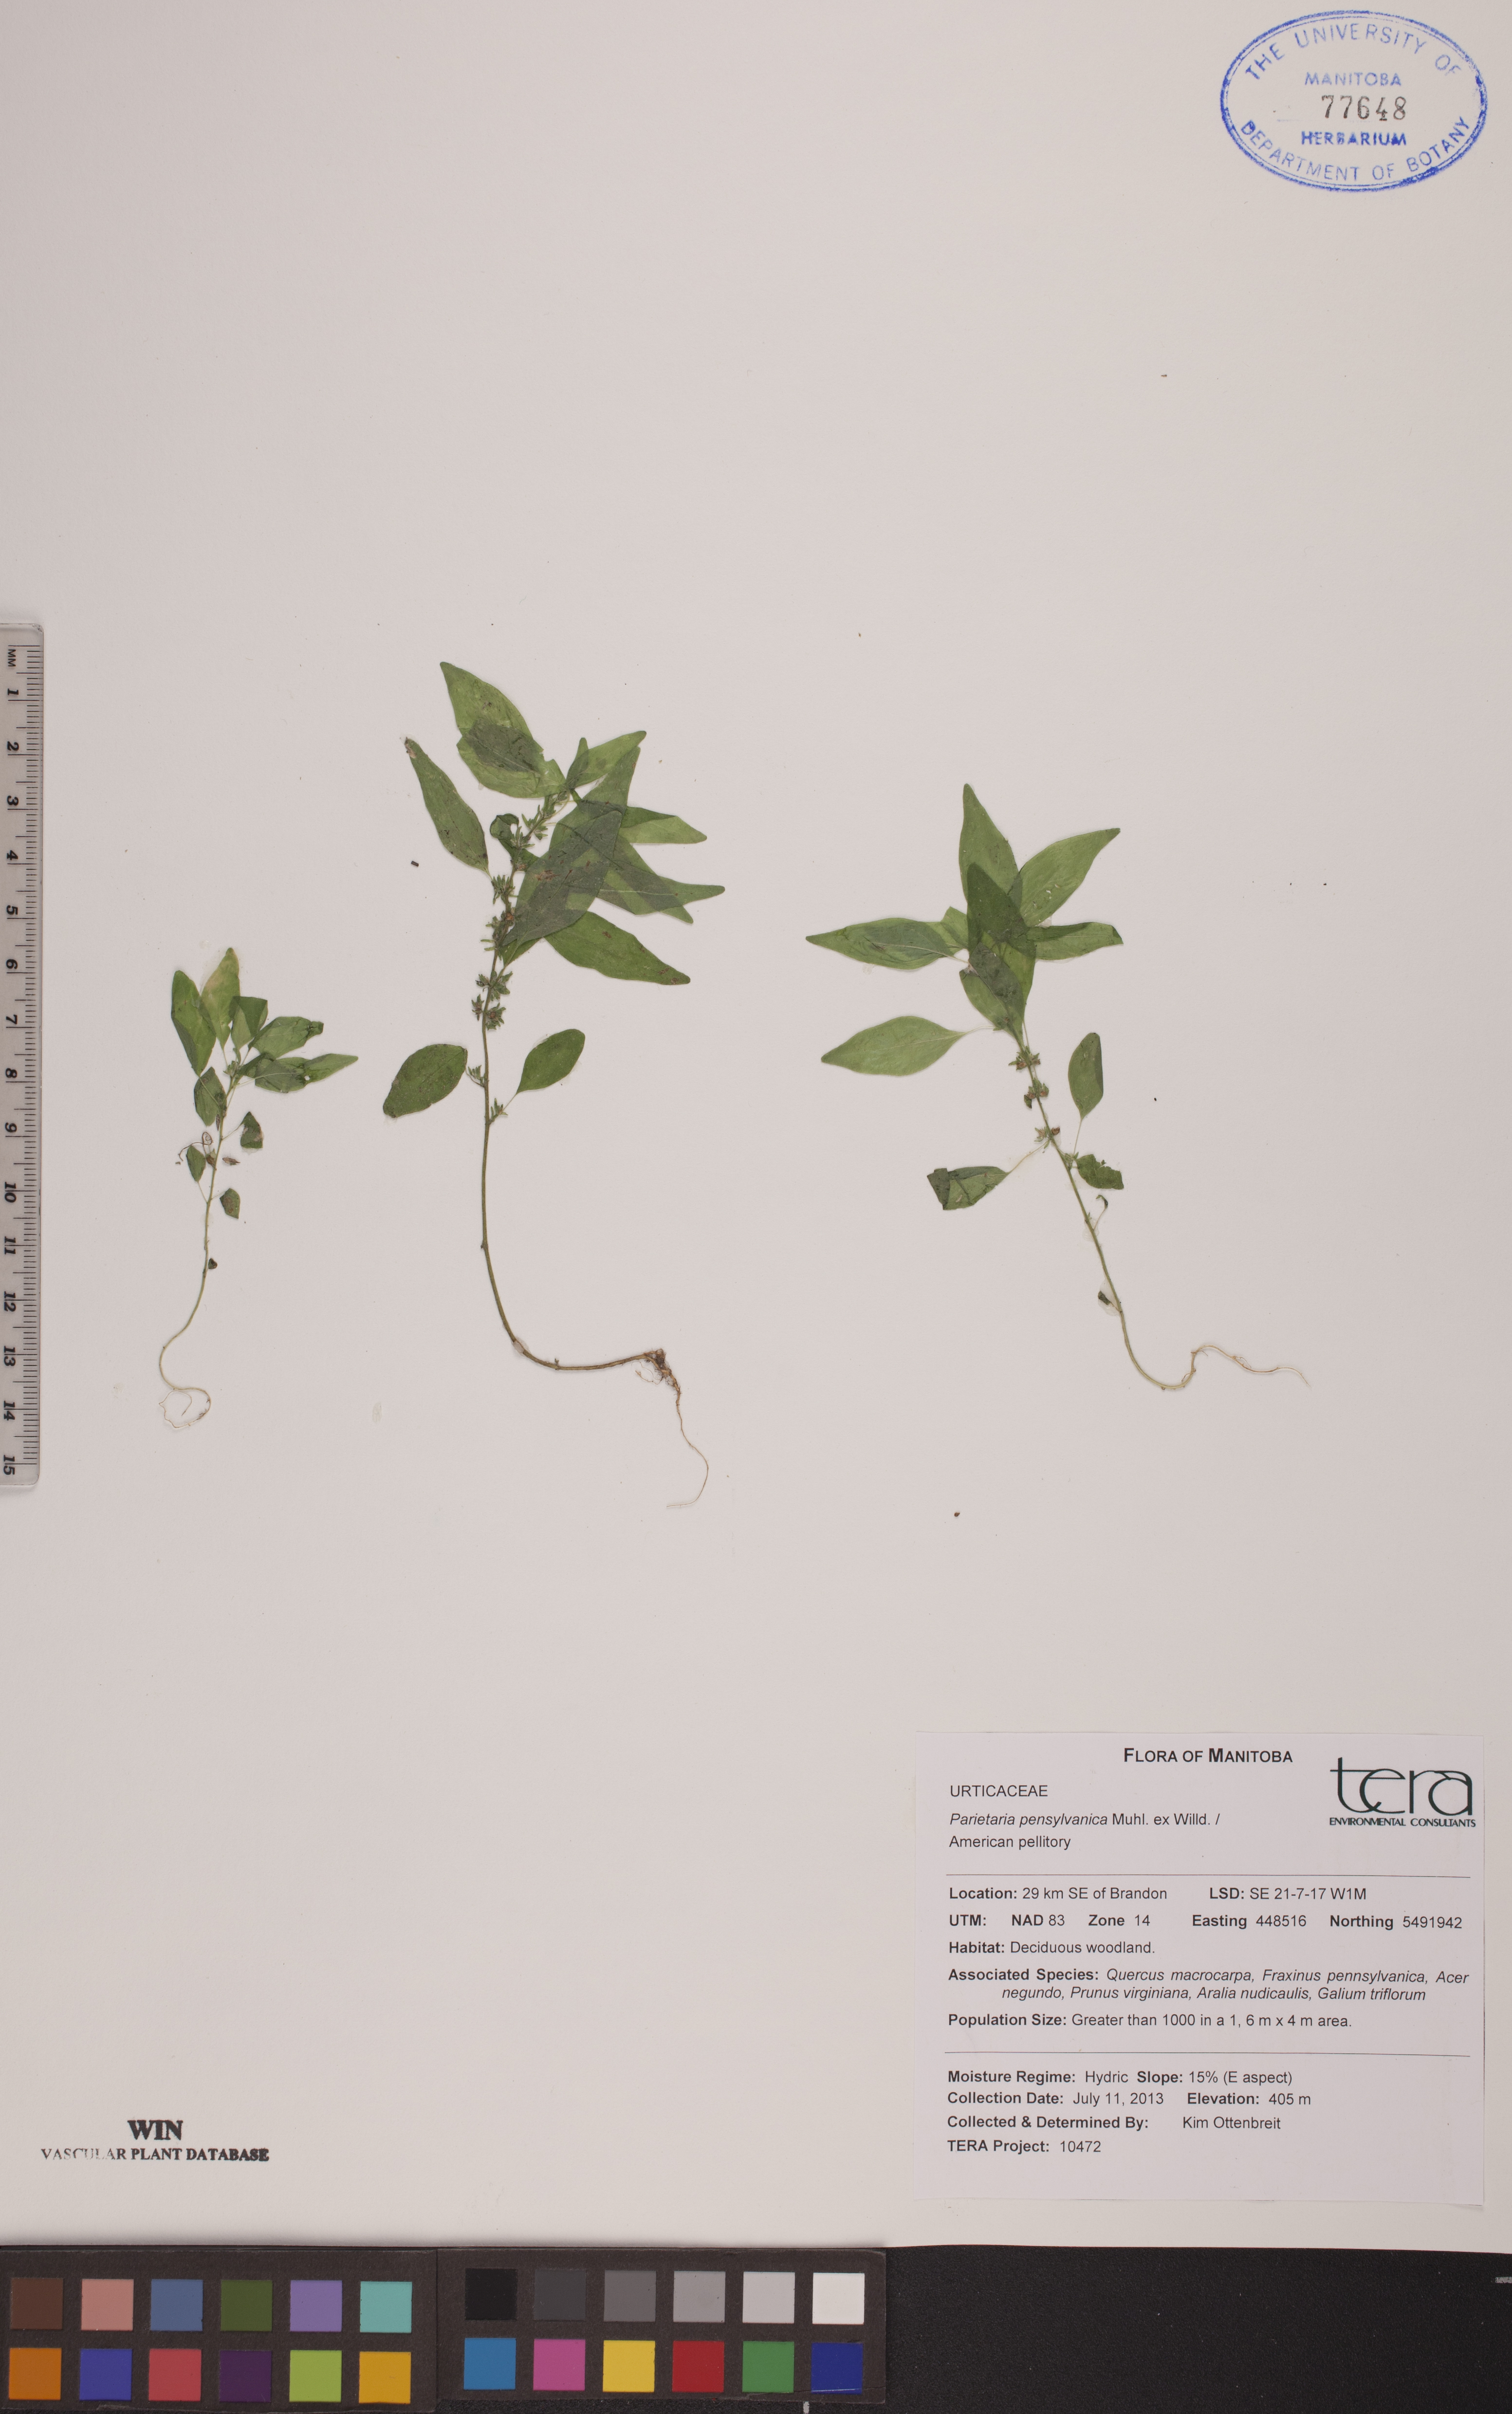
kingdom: Plantae
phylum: Tracheophyta
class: Magnoliopsida
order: Rosales
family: Urticaceae
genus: Parietaria
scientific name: Parietaria pensylvanica
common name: Pennsylvania pellitory
